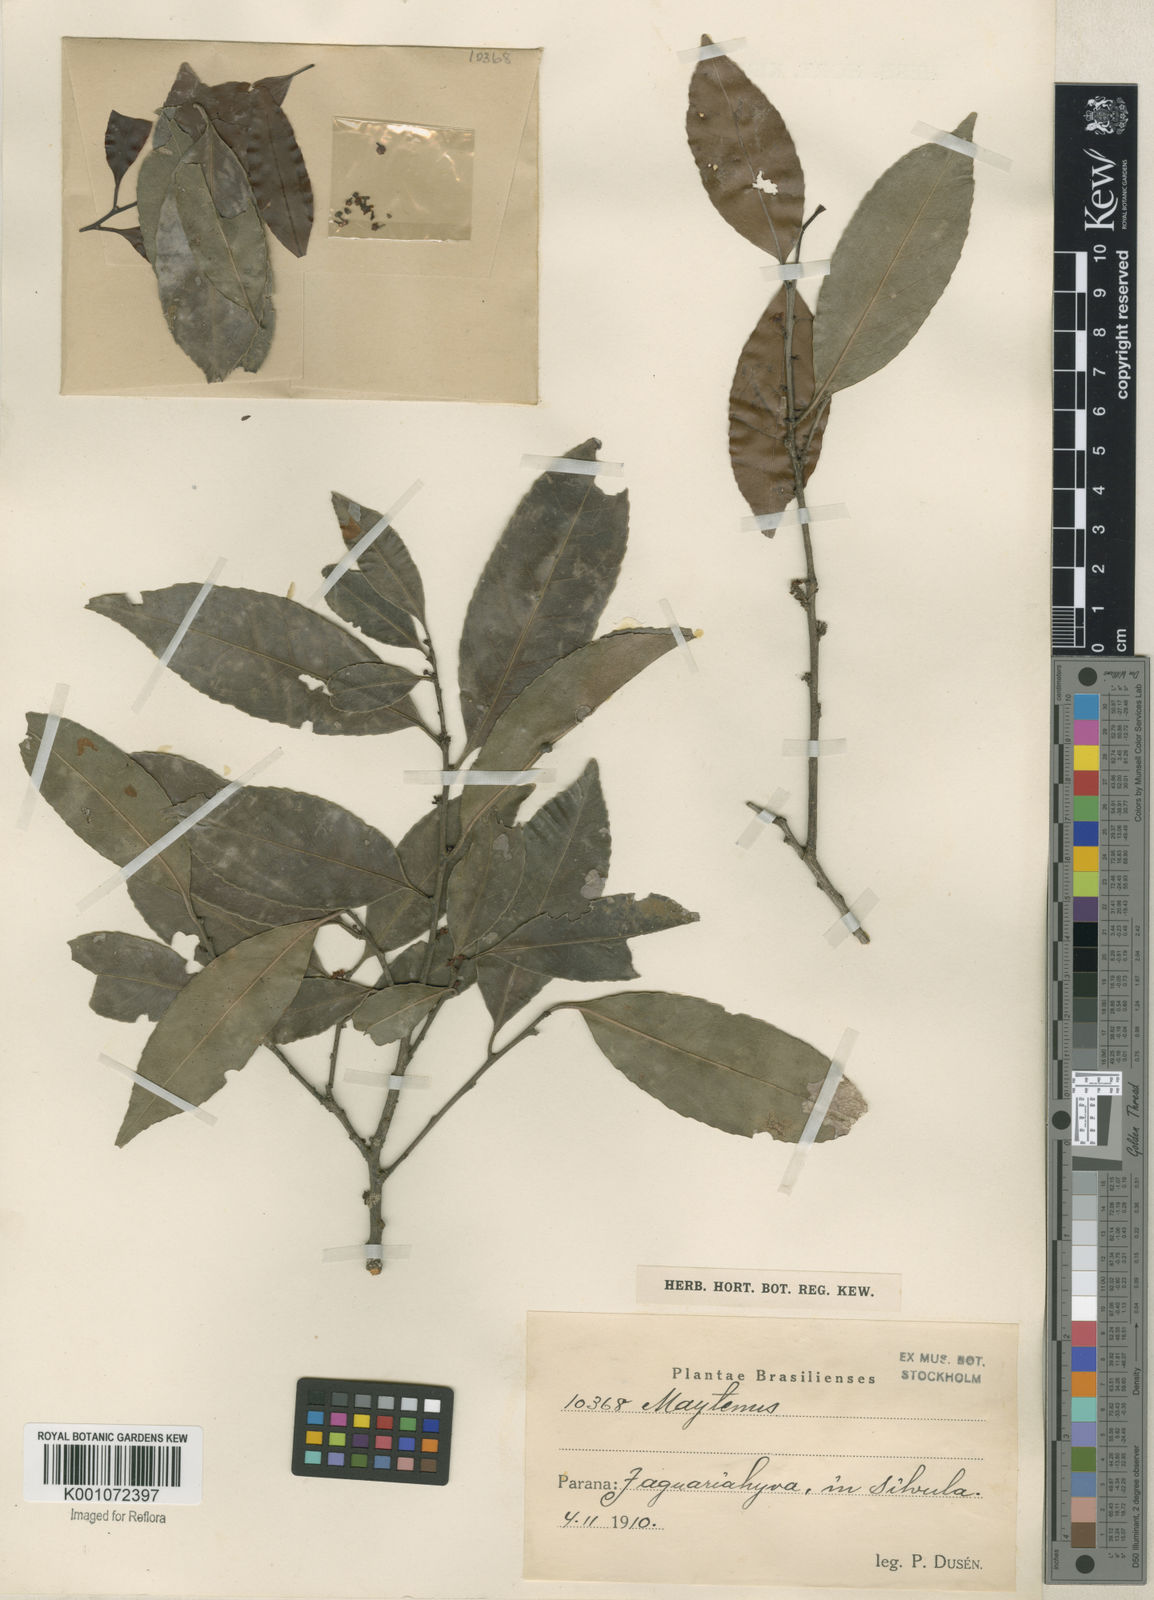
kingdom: Plantae
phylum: Tracheophyta
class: Magnoliopsida
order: Celastrales
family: Celastraceae
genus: Maytenus
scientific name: Maytenus
